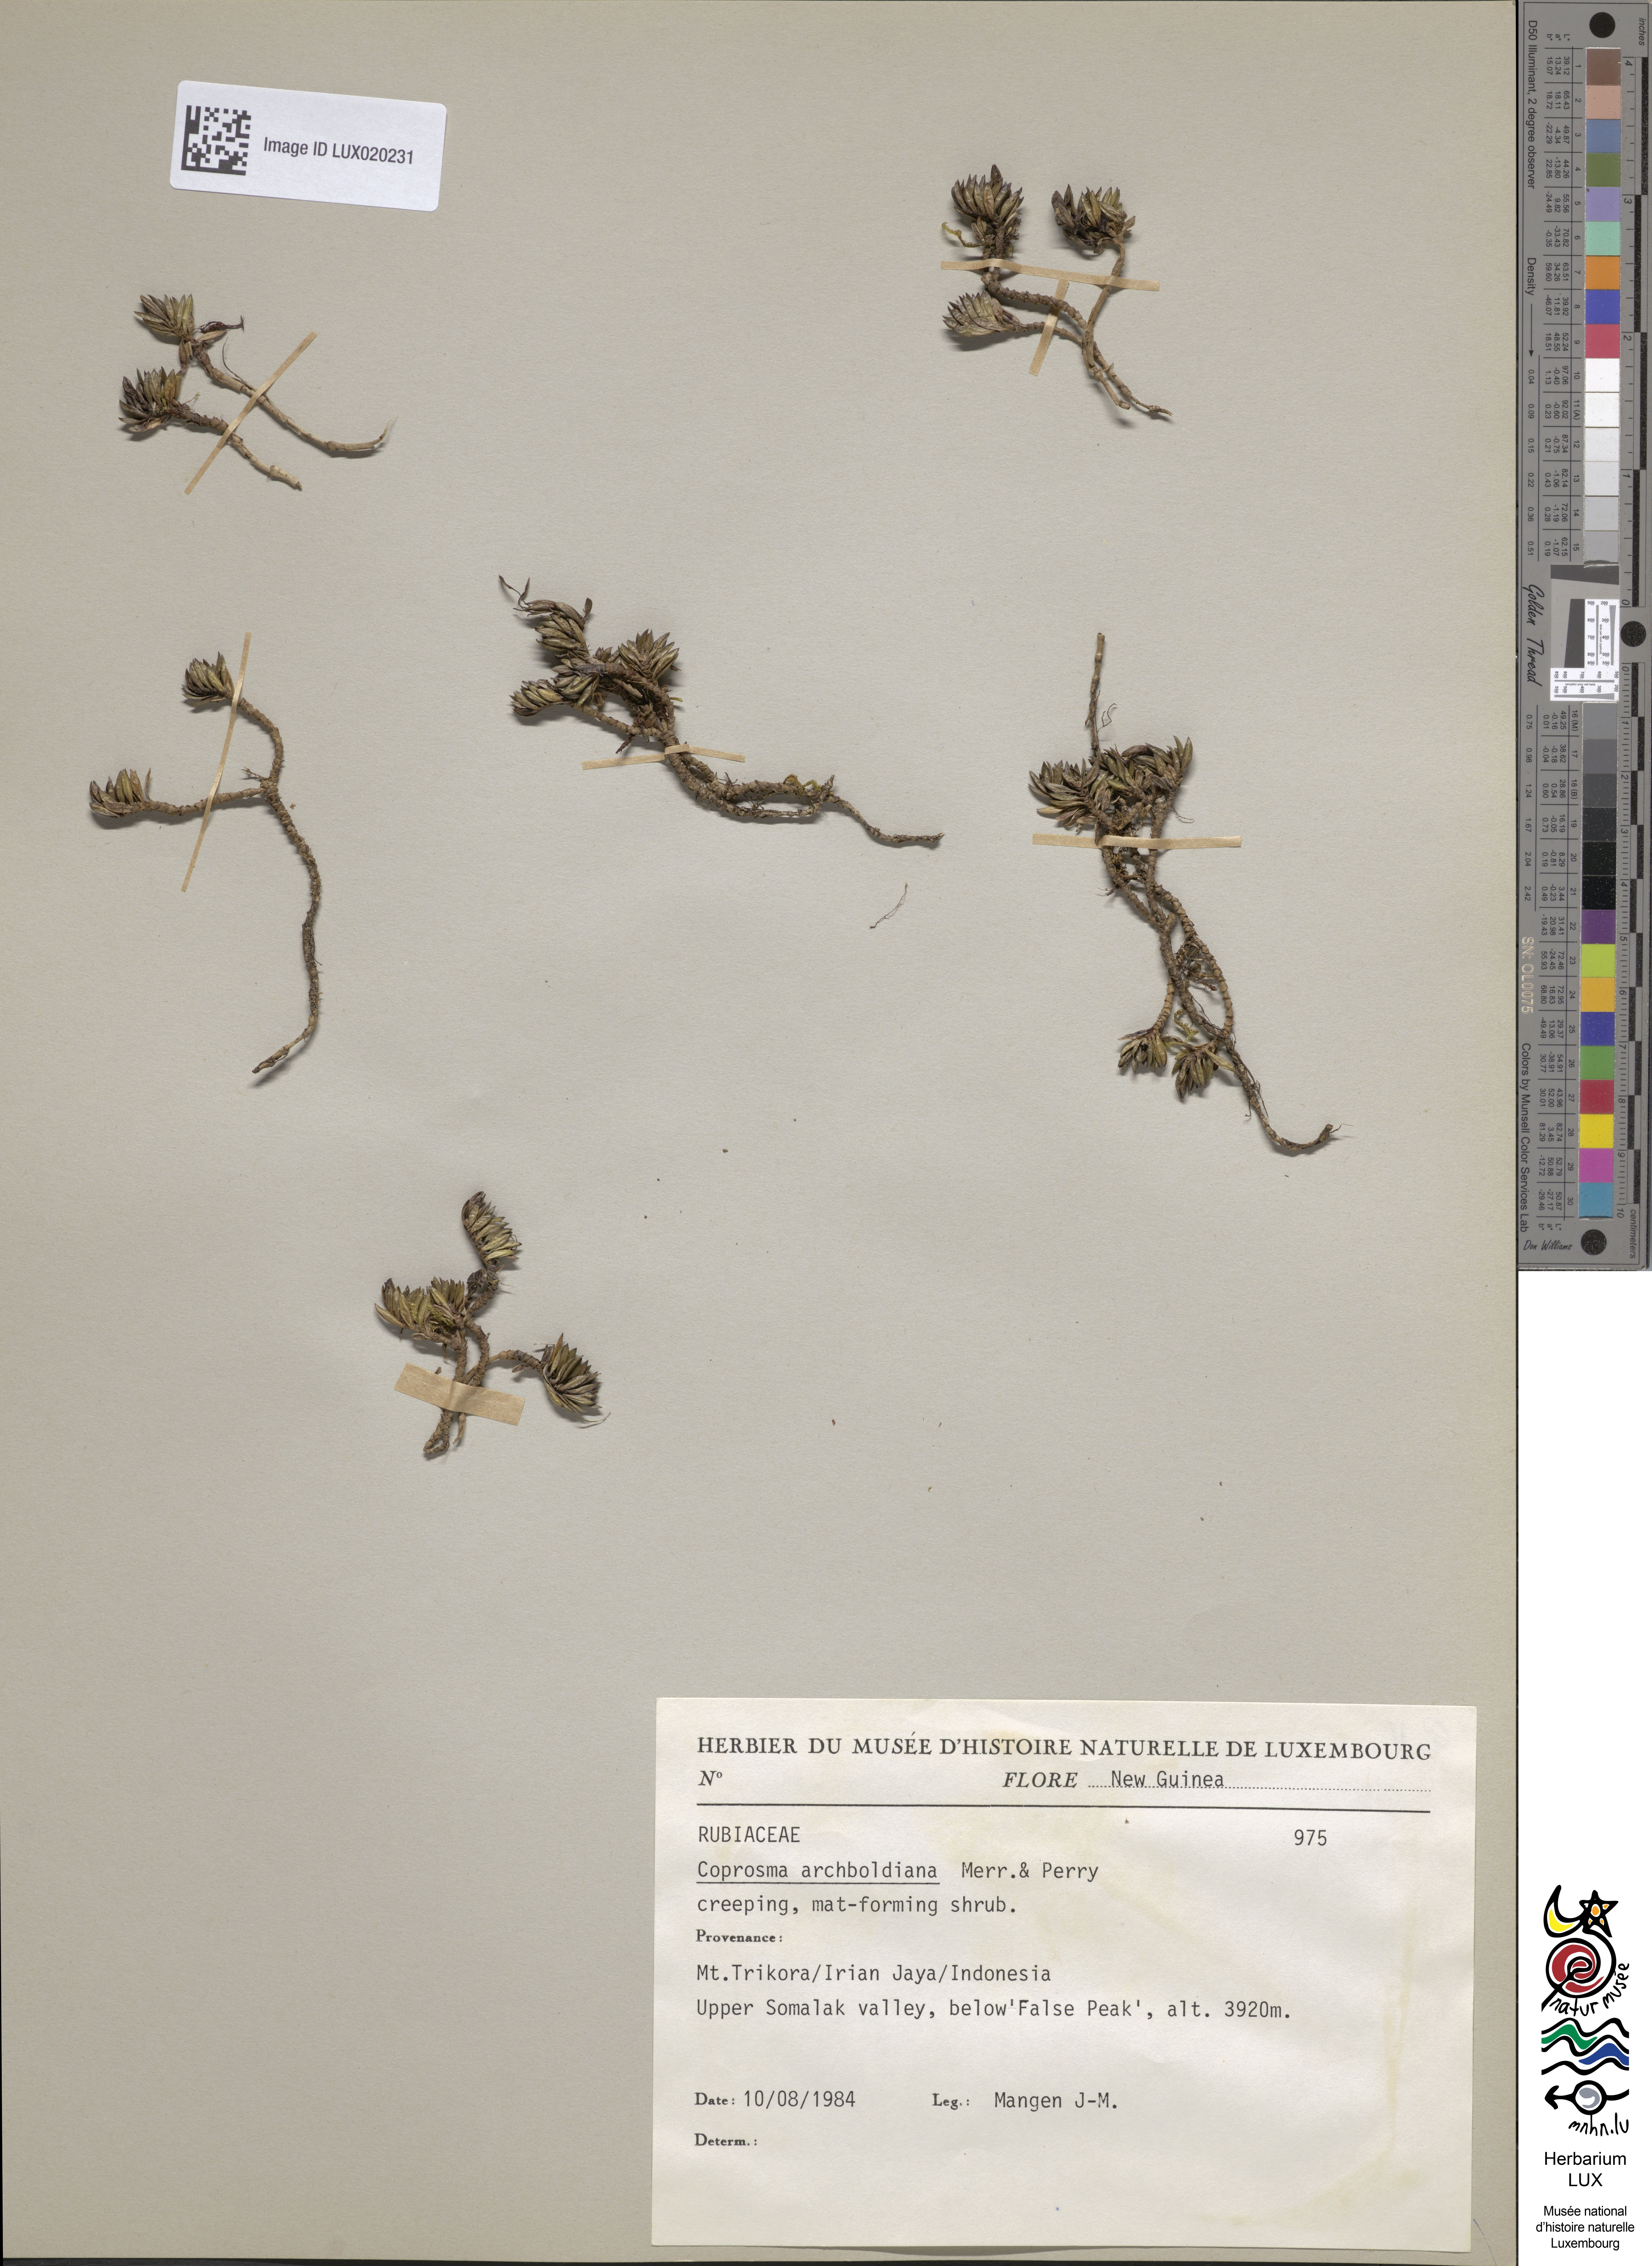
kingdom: Plantae
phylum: Tracheophyta
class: Magnoliopsida
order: Gentianales
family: Rubiaceae
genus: Coprosma
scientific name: Coprosma archboldiana
